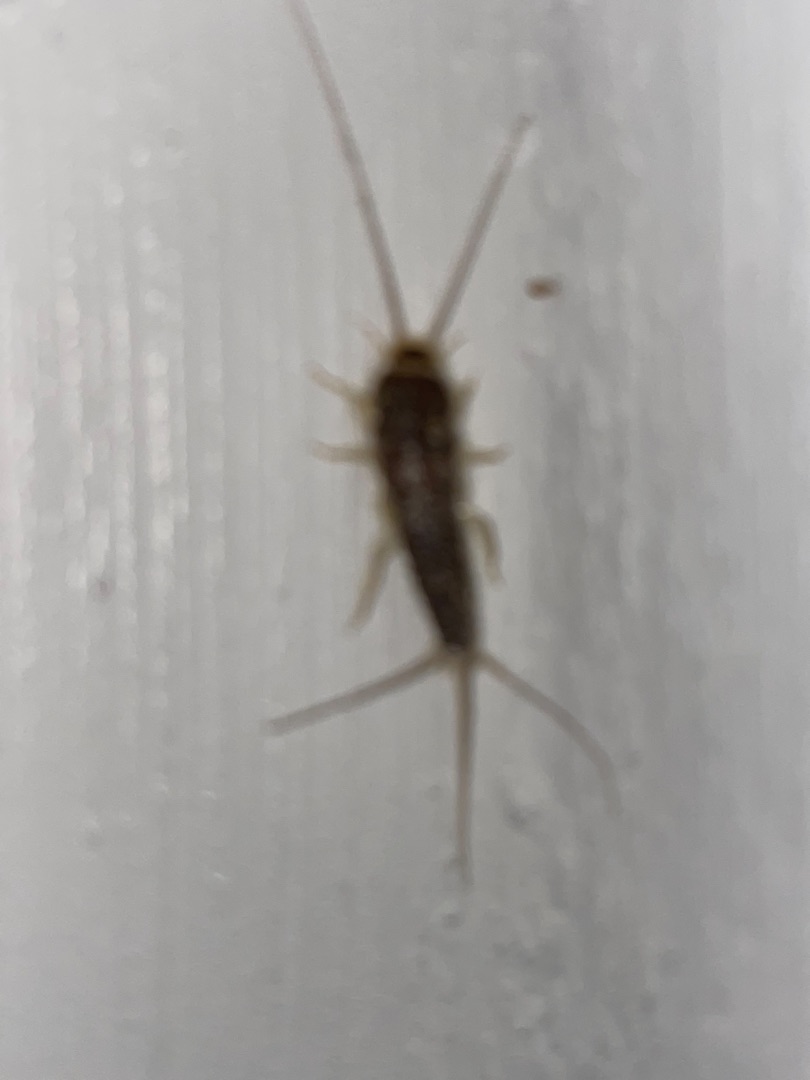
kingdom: Animalia
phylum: Arthropoda
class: Insecta
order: Zygentoma
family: Lepismatidae
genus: Ctenolepisma
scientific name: Ctenolepisma longicaudatum
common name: Skægget sølvkræ
